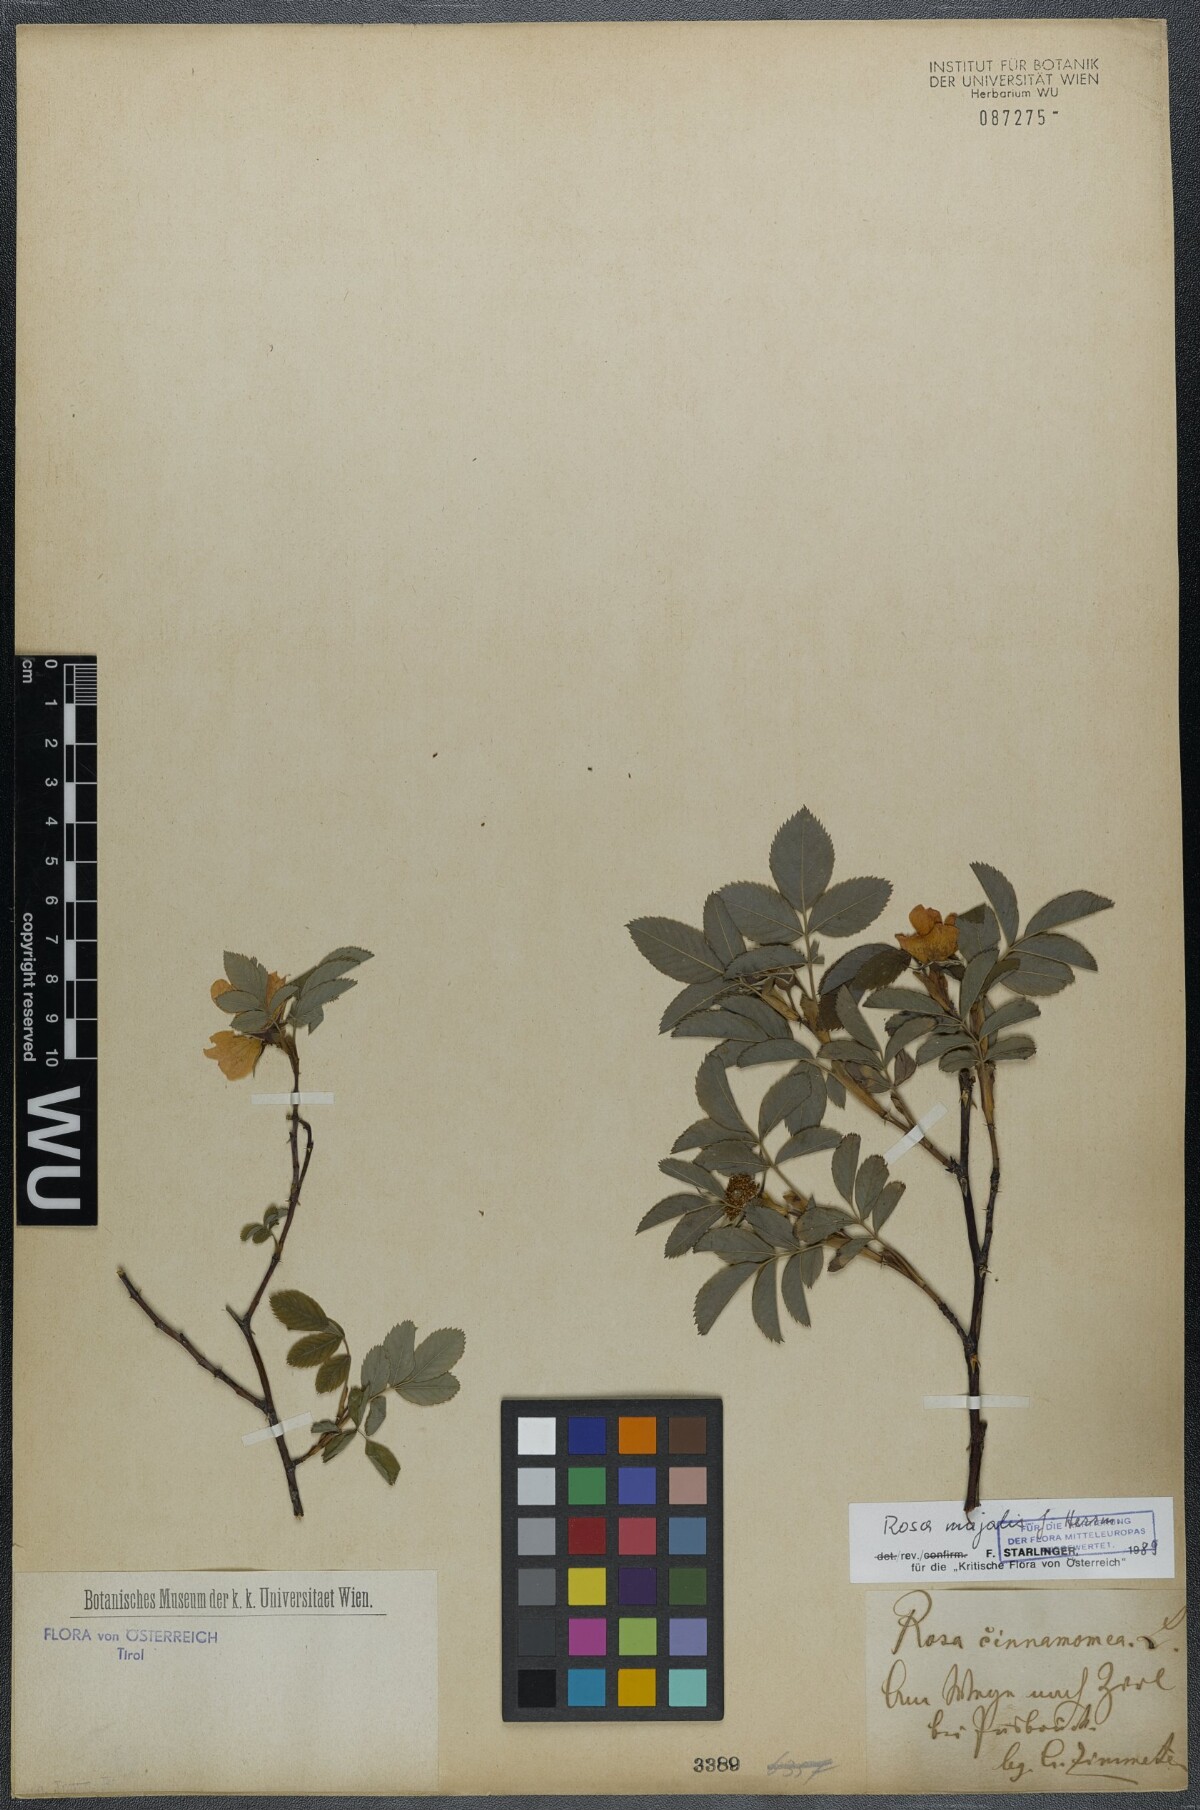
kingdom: Plantae
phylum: Tracheophyta
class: Magnoliopsida
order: Rosales
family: Rosaceae
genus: Rosa
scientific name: Rosa majalis
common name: Cinnamon rose
